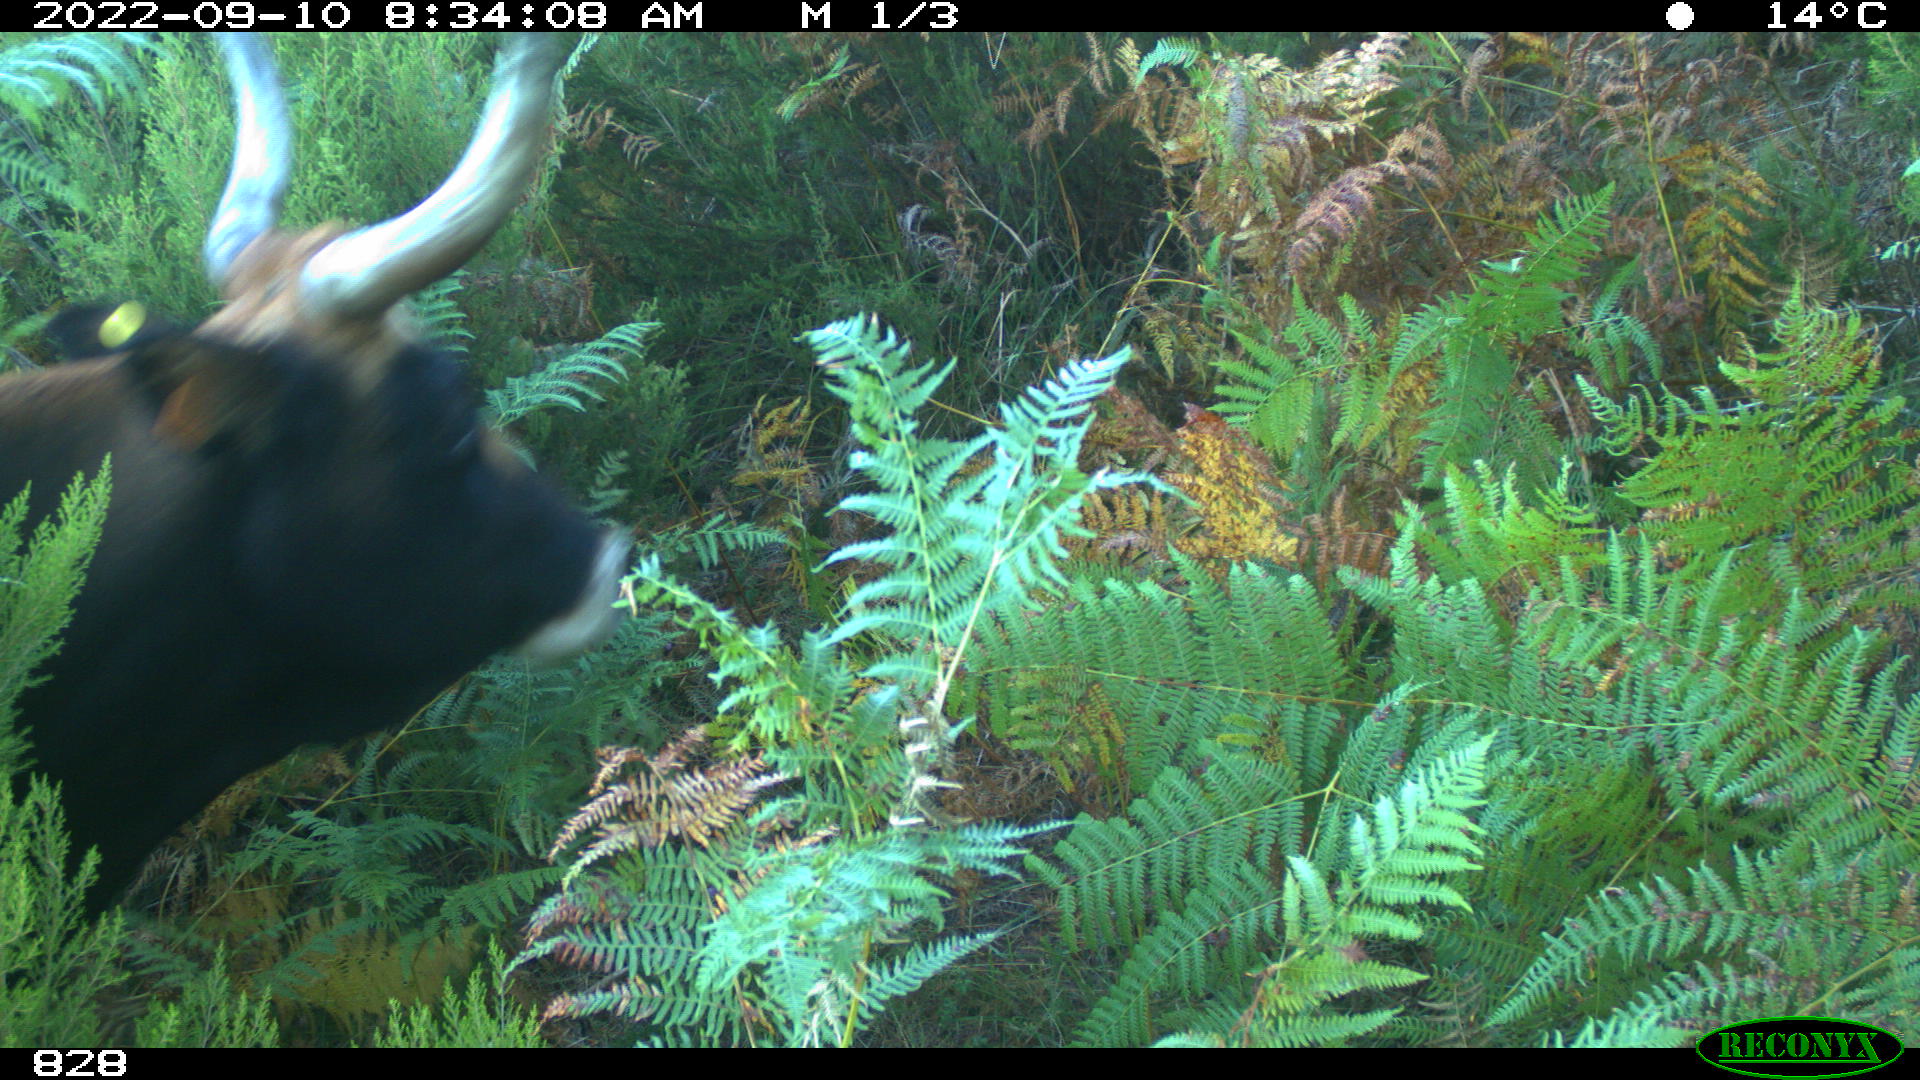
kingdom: Animalia
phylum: Chordata
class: Mammalia
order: Artiodactyla
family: Bovidae
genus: Bos
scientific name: Bos taurus
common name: Domesticated cattle
